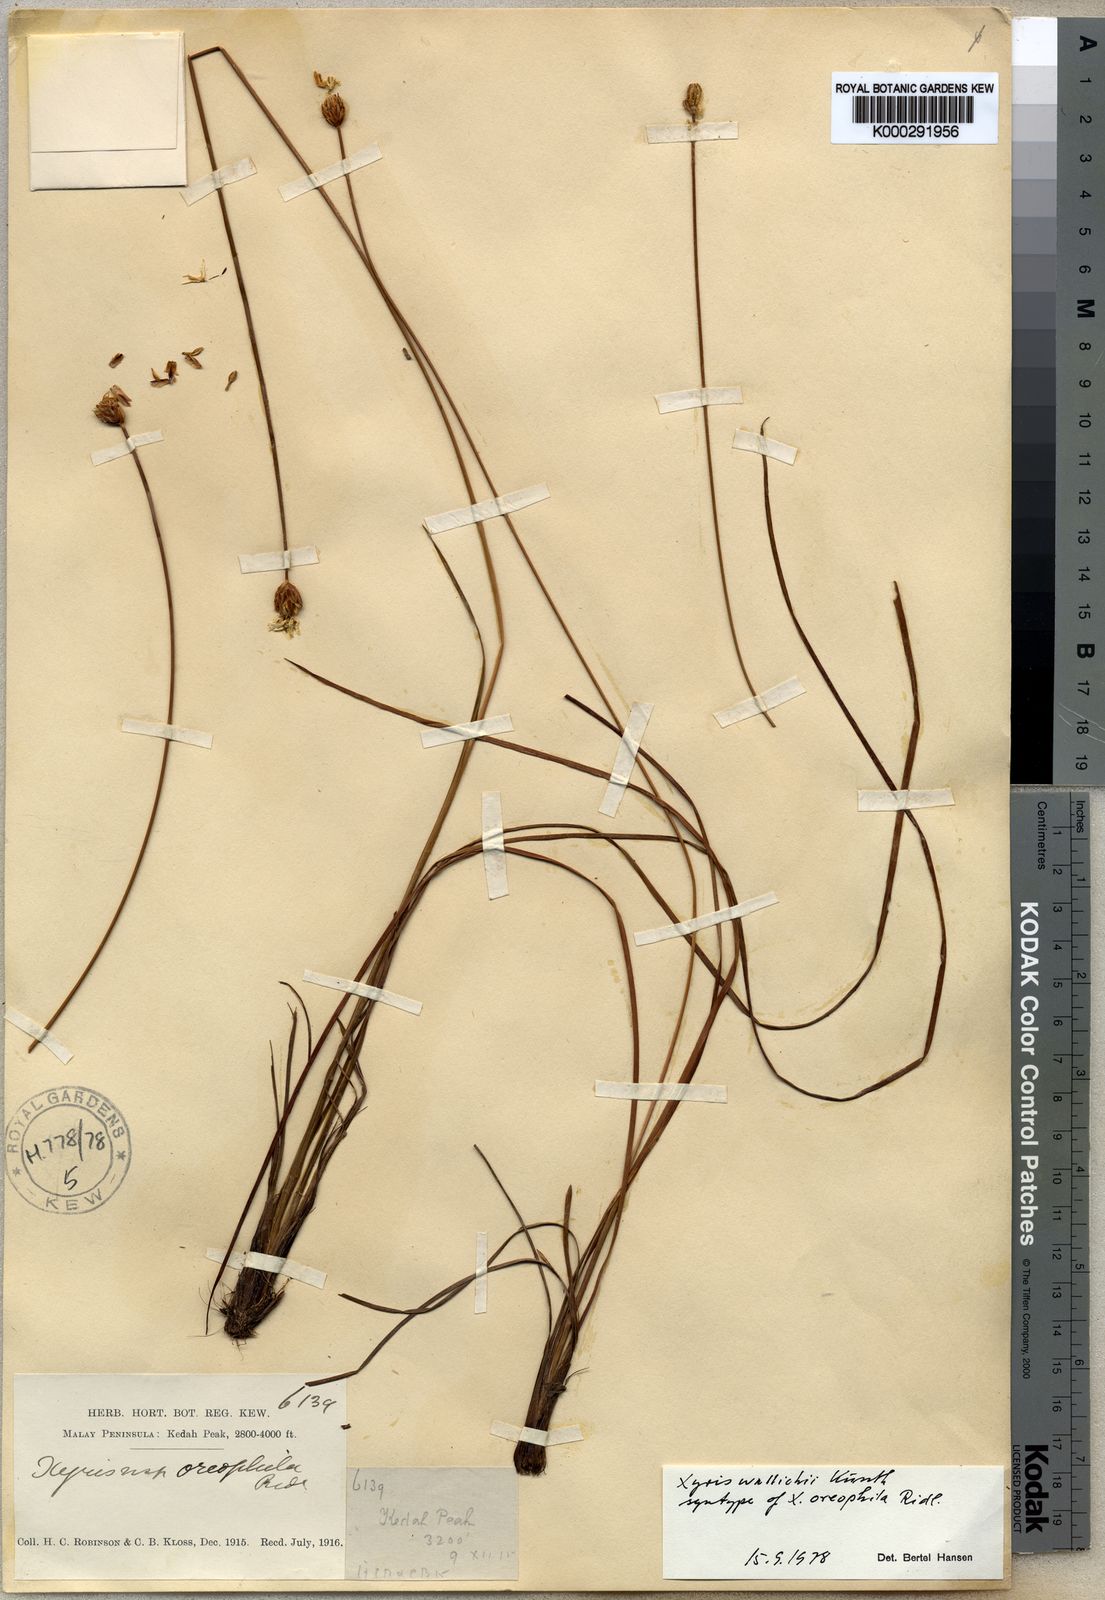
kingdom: Plantae
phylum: Tracheophyta
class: Liliopsida
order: Poales
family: Xyridaceae
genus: Xyris
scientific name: Xyris wallichii
